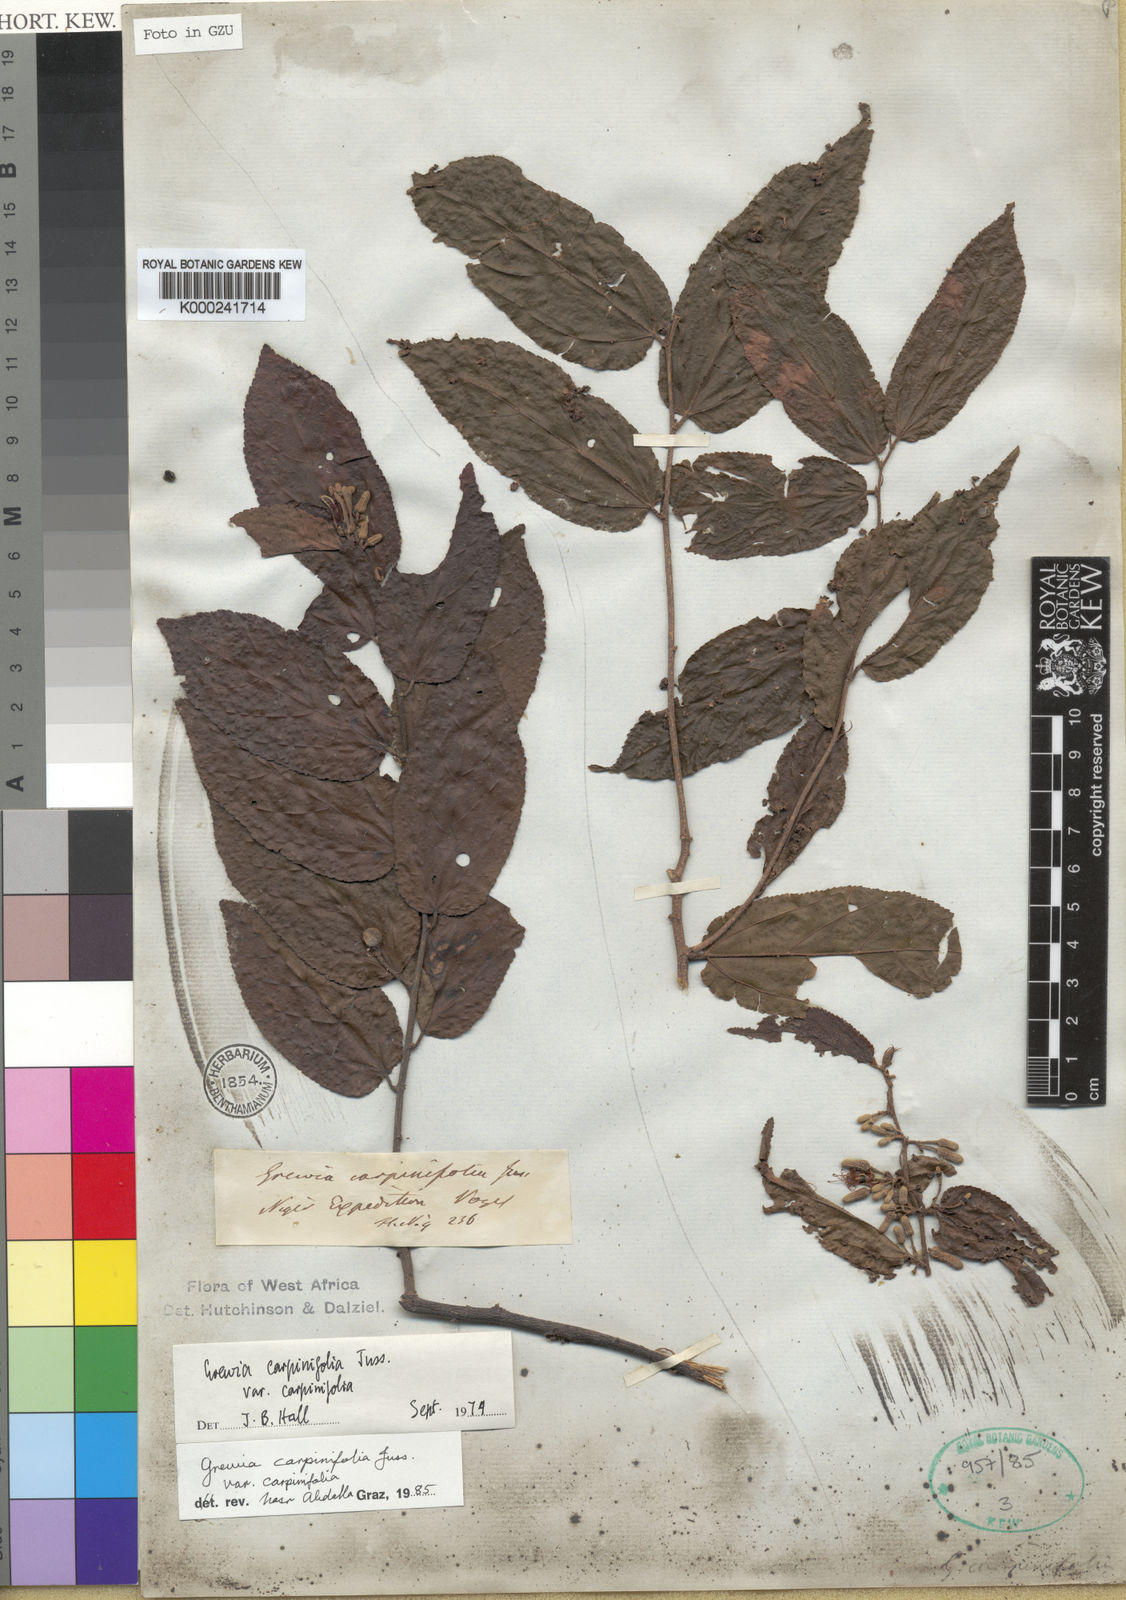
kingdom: Plantae
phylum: Tracheophyta
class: Magnoliopsida
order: Malvales
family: Malvaceae
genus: Grewia
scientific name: Grewia carpinifolia
